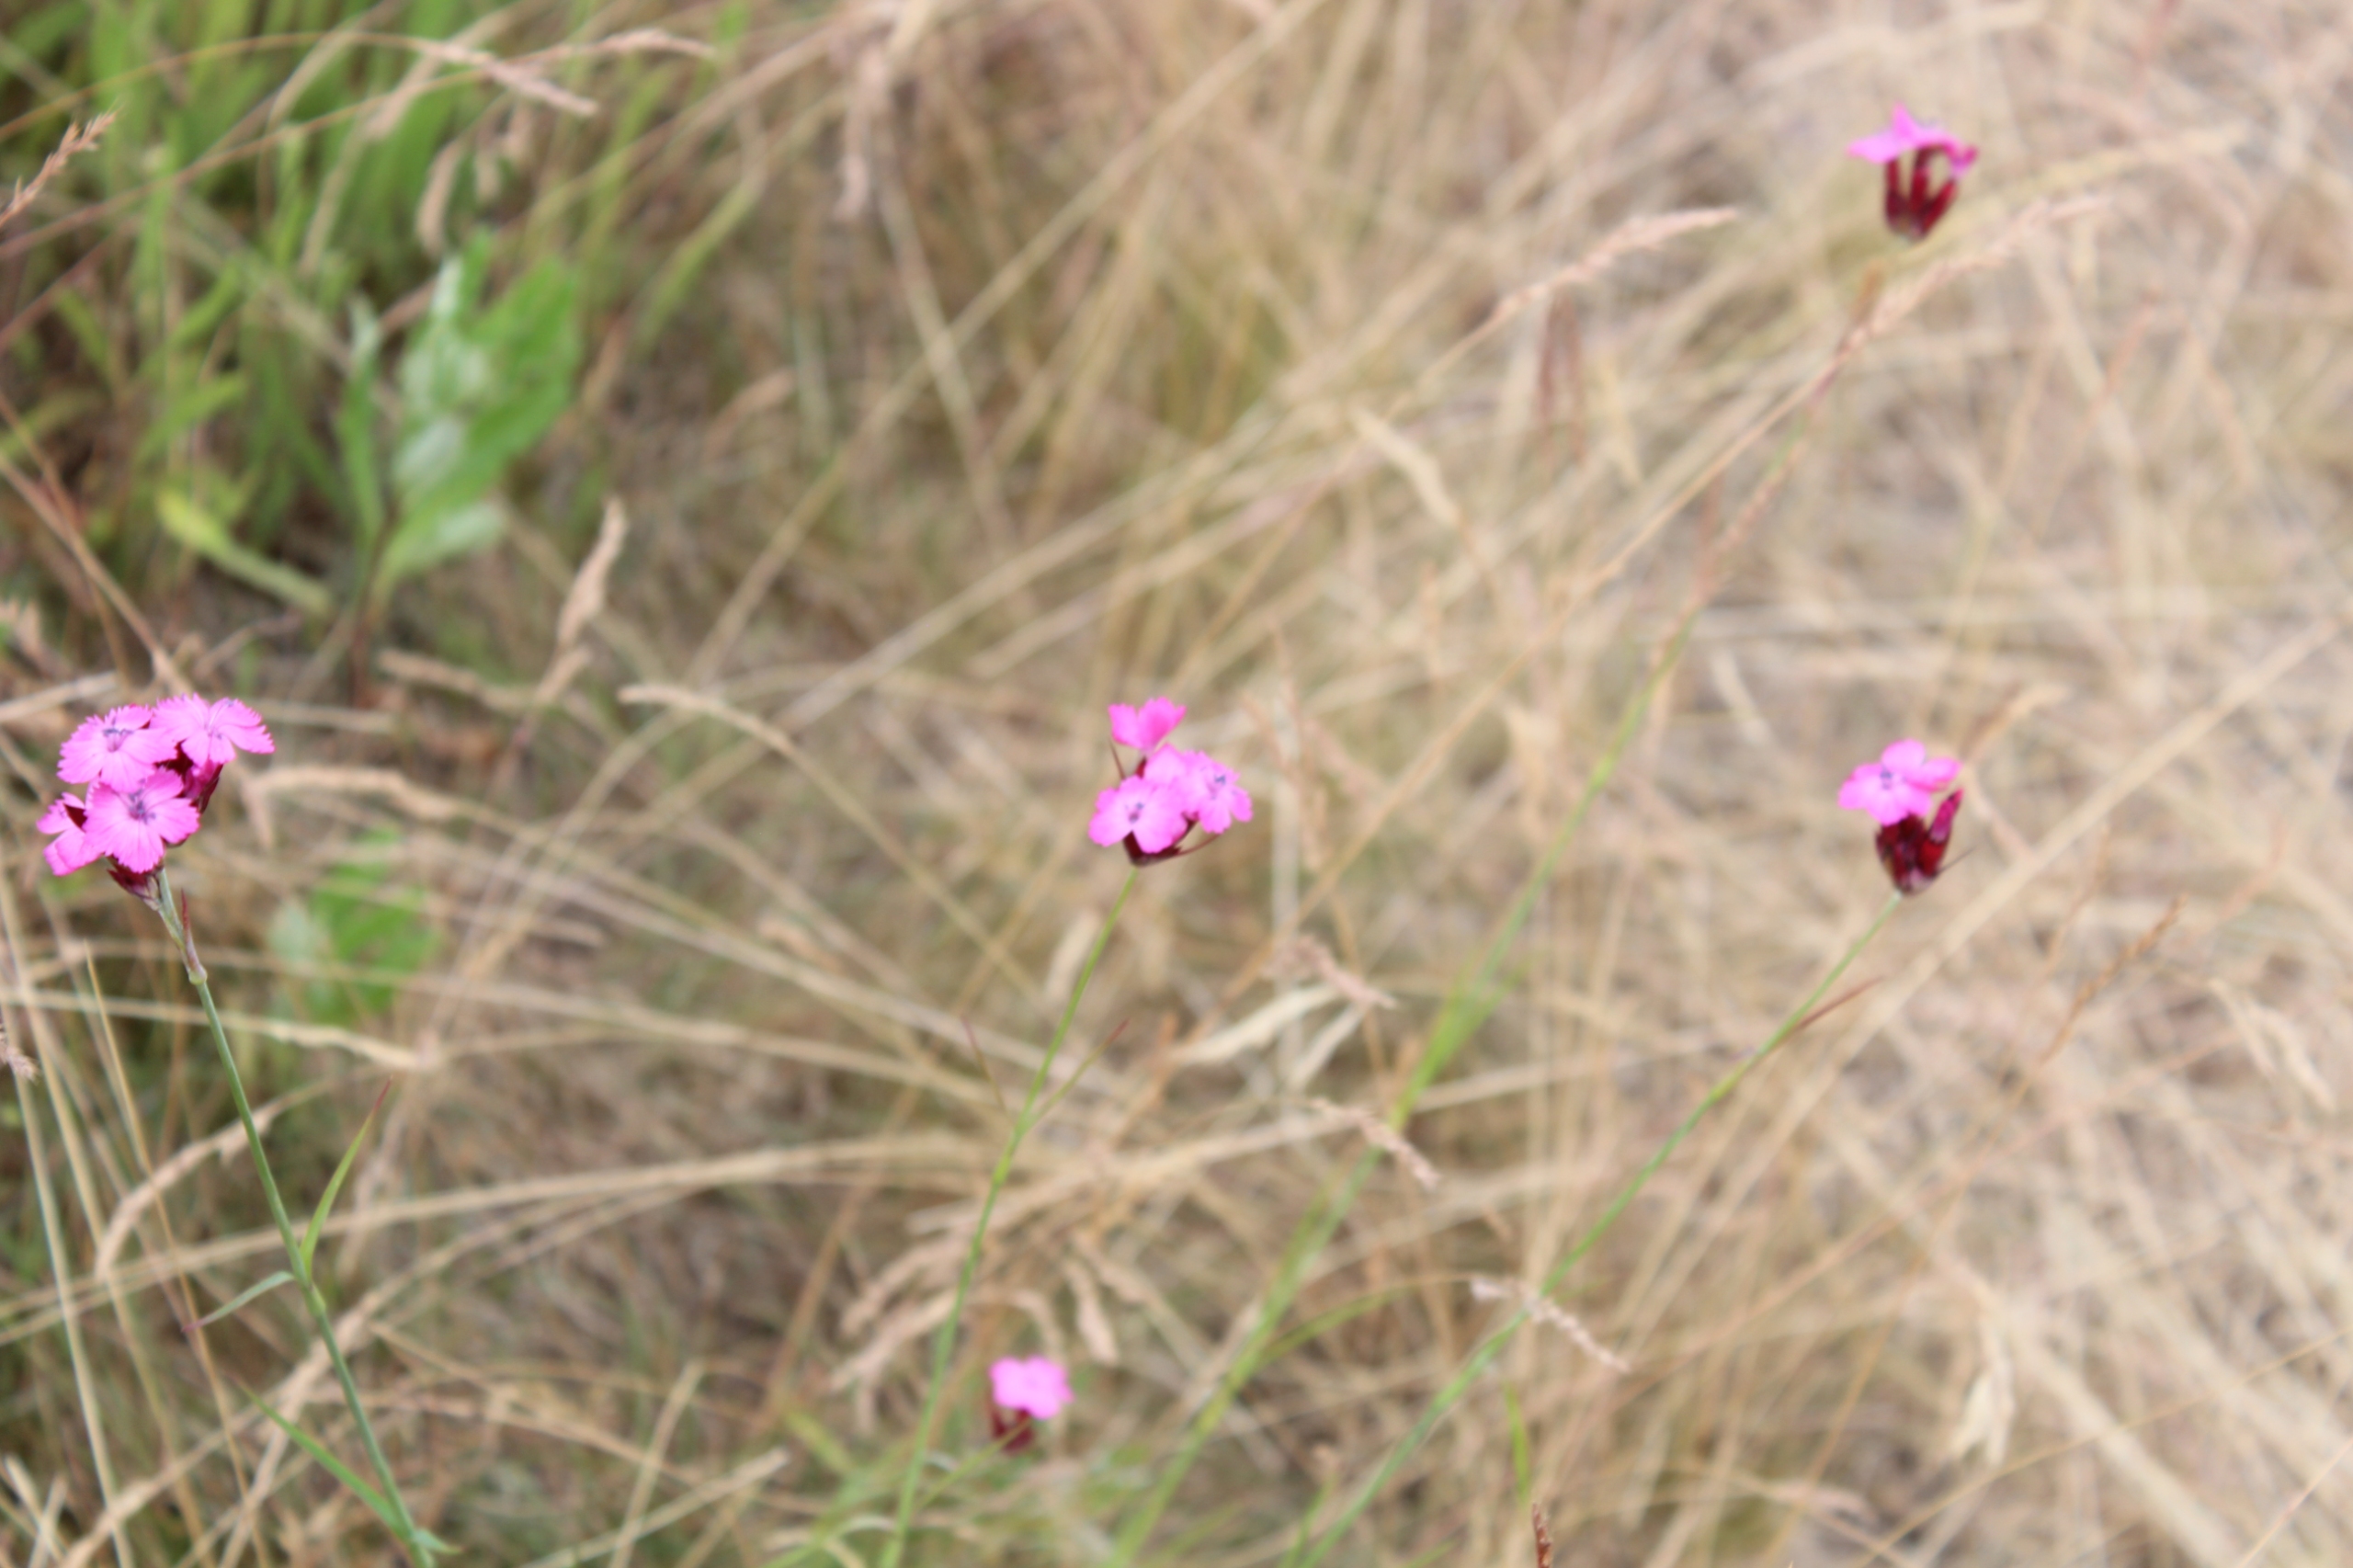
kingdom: Plantae
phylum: Tracheophyta
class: Magnoliopsida
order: Caryophyllales
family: Caryophyllaceae
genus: Dianthus
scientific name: Dianthus carthusianorum
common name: Karteuser-nellike
